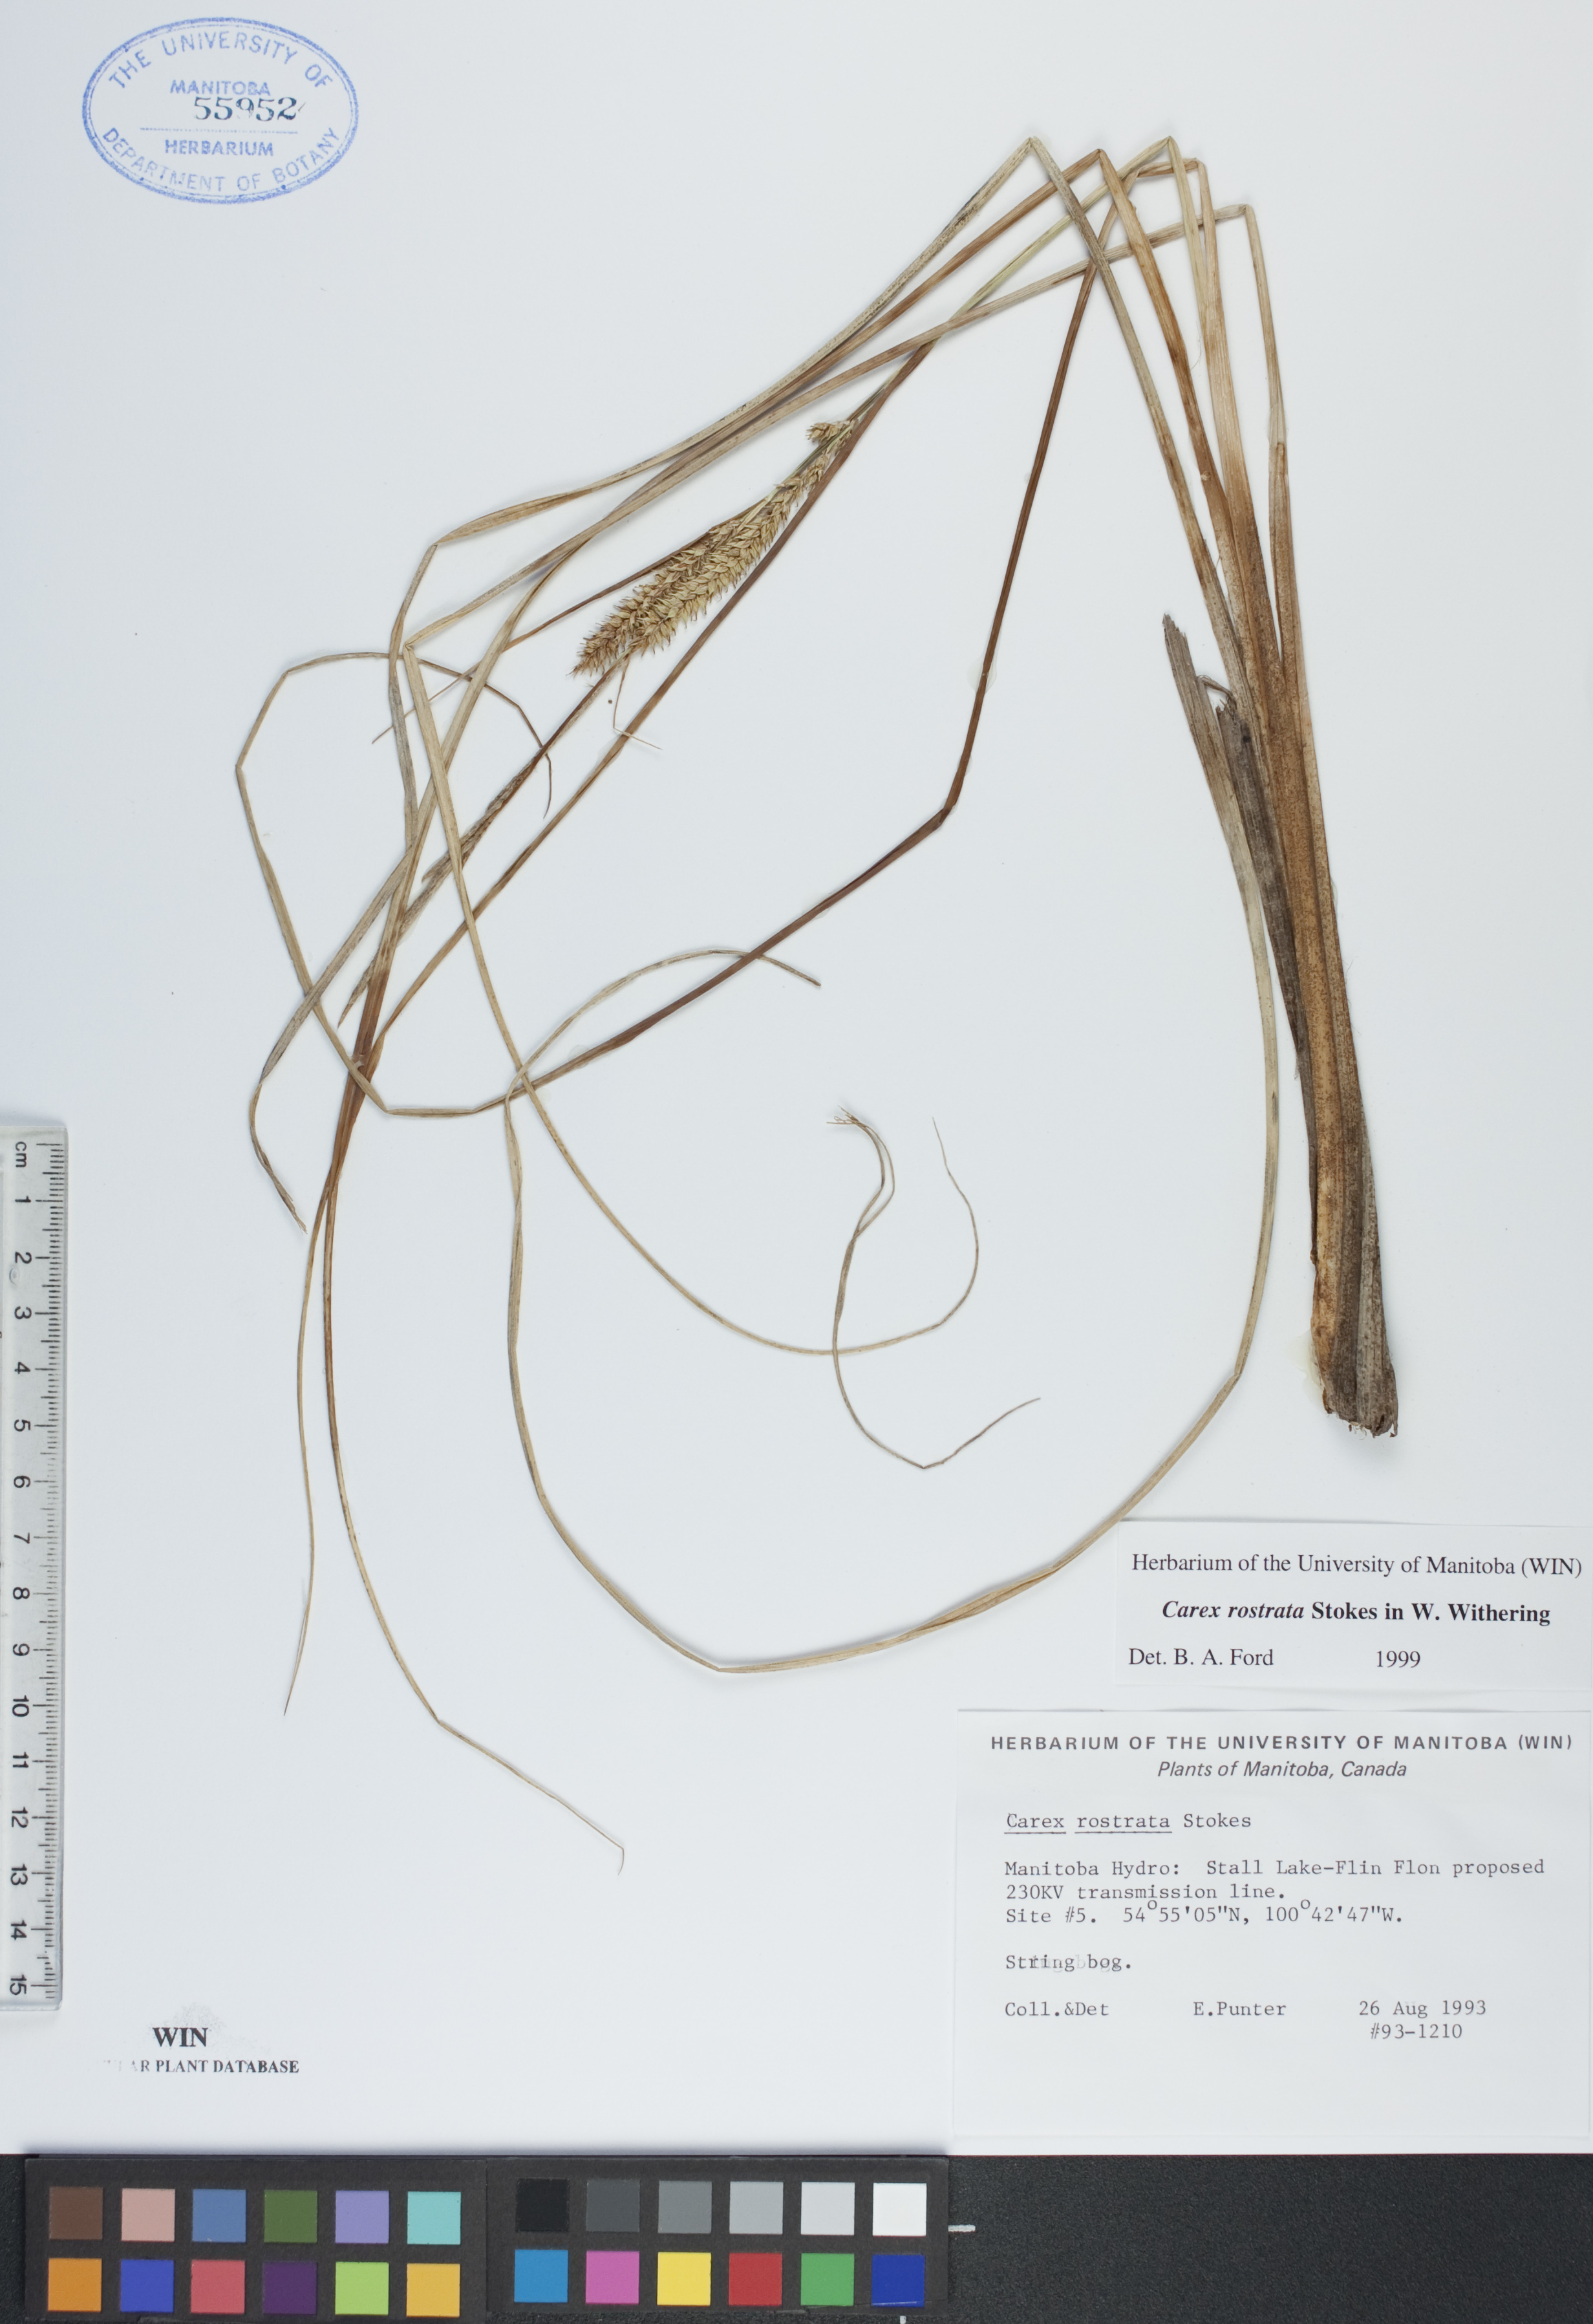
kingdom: Plantae
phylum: Tracheophyta
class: Liliopsida
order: Poales
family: Cyperaceae
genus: Carex
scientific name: Carex rostrata
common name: Bottle sedge
